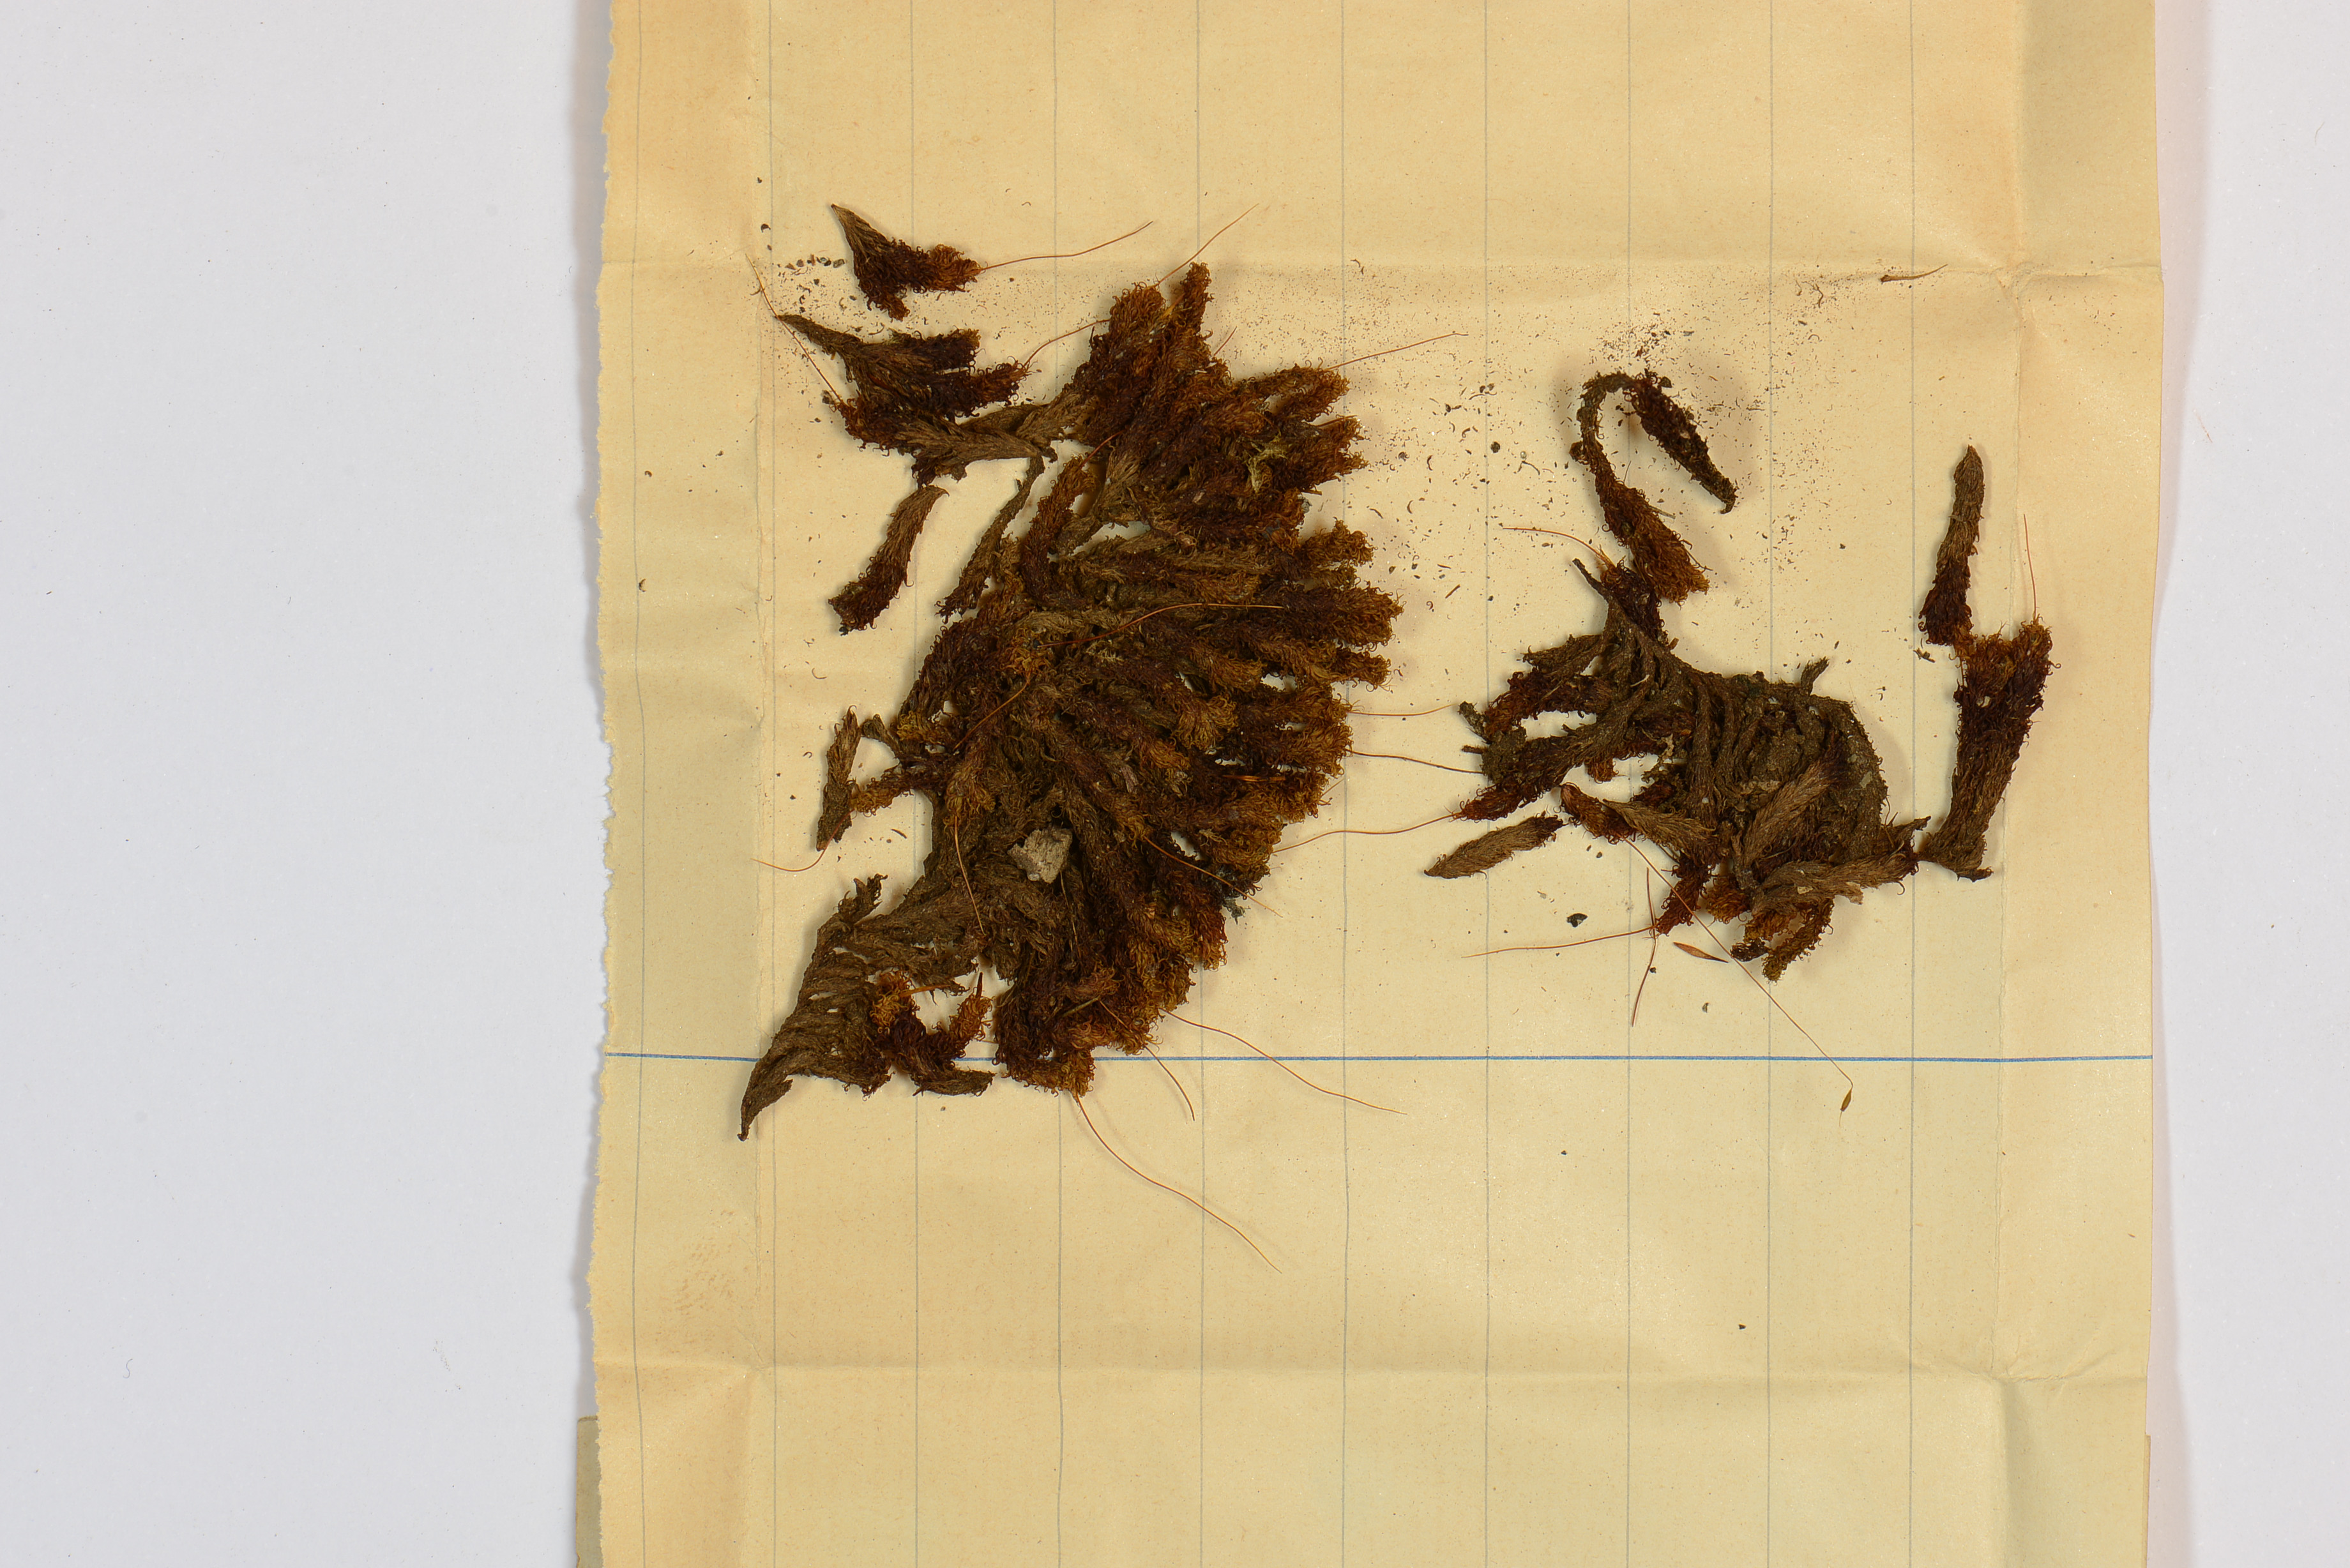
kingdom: Plantae
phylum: Bryophyta
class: Bryopsida
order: Orthotrichales
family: Orthotrichaceae
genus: Macromitrium
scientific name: Macromitrium cardotii
